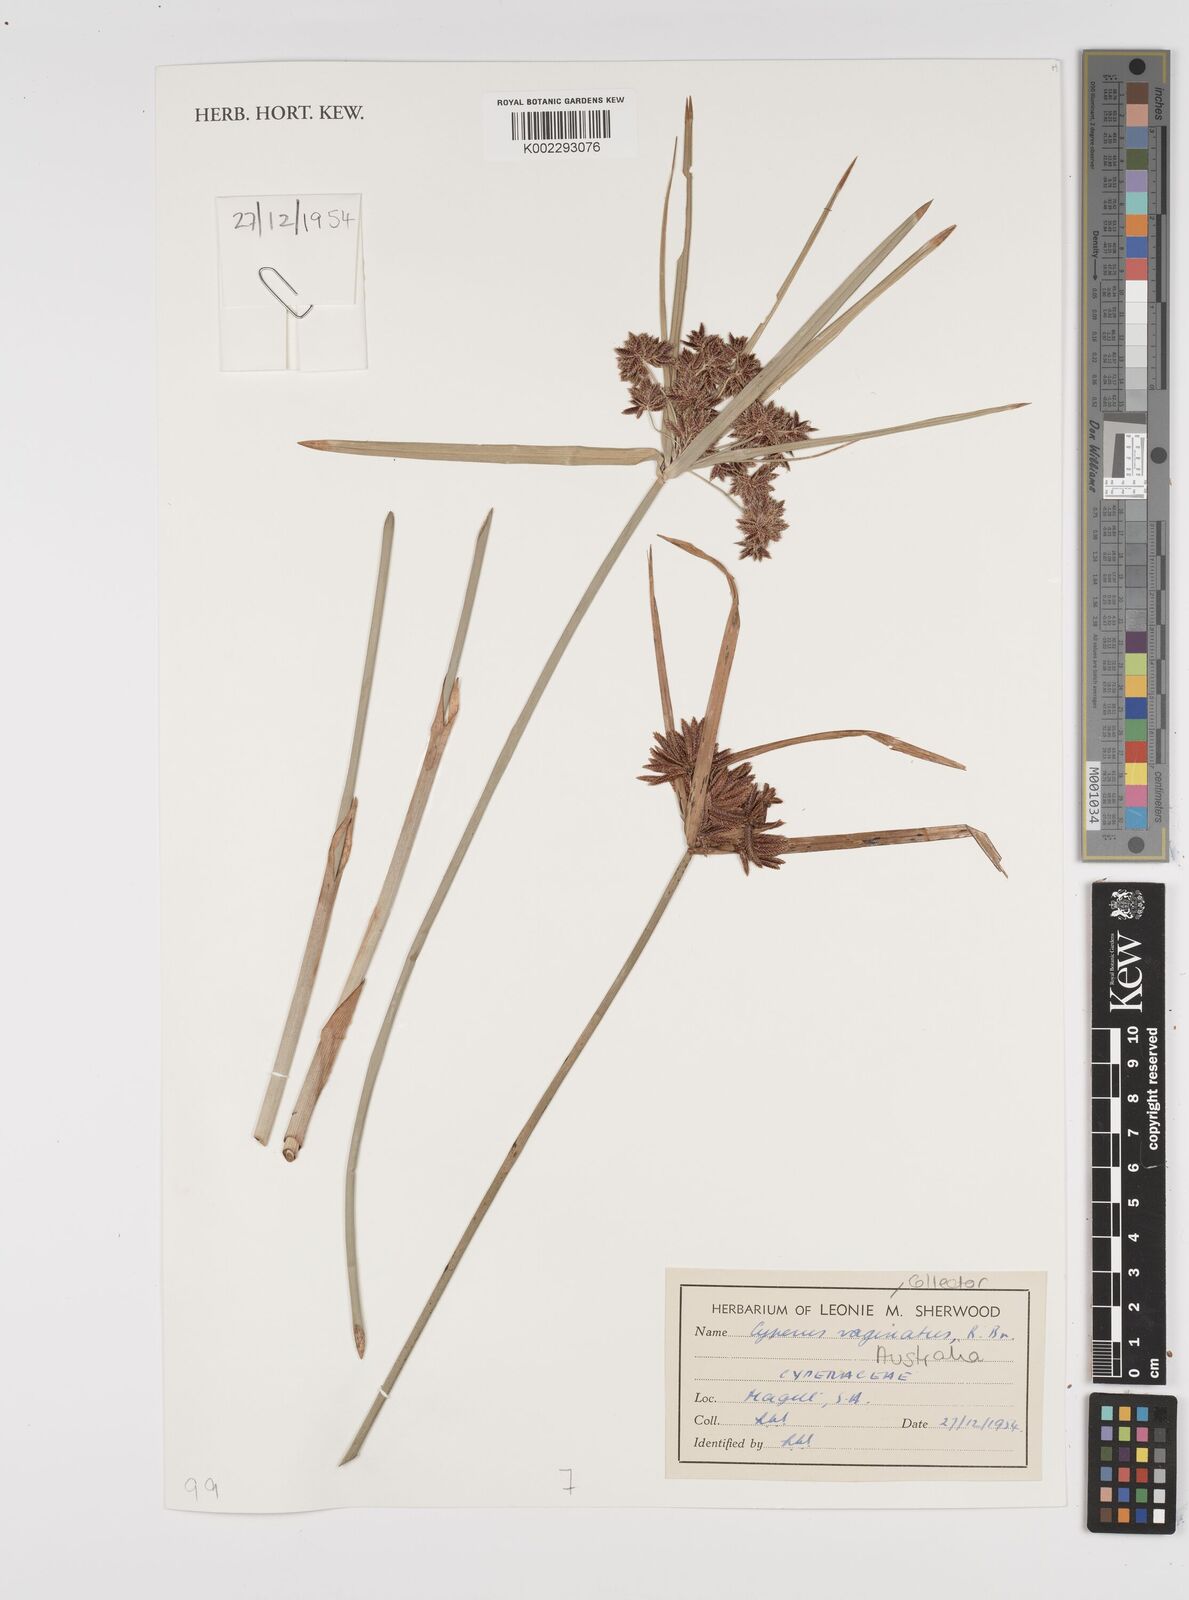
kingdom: Plantae
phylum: Tracheophyta
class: Liliopsida
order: Poales
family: Cyperaceae
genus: Cyperus
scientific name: Cyperus vaginatus
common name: Stiff-leaved flat-sedge
